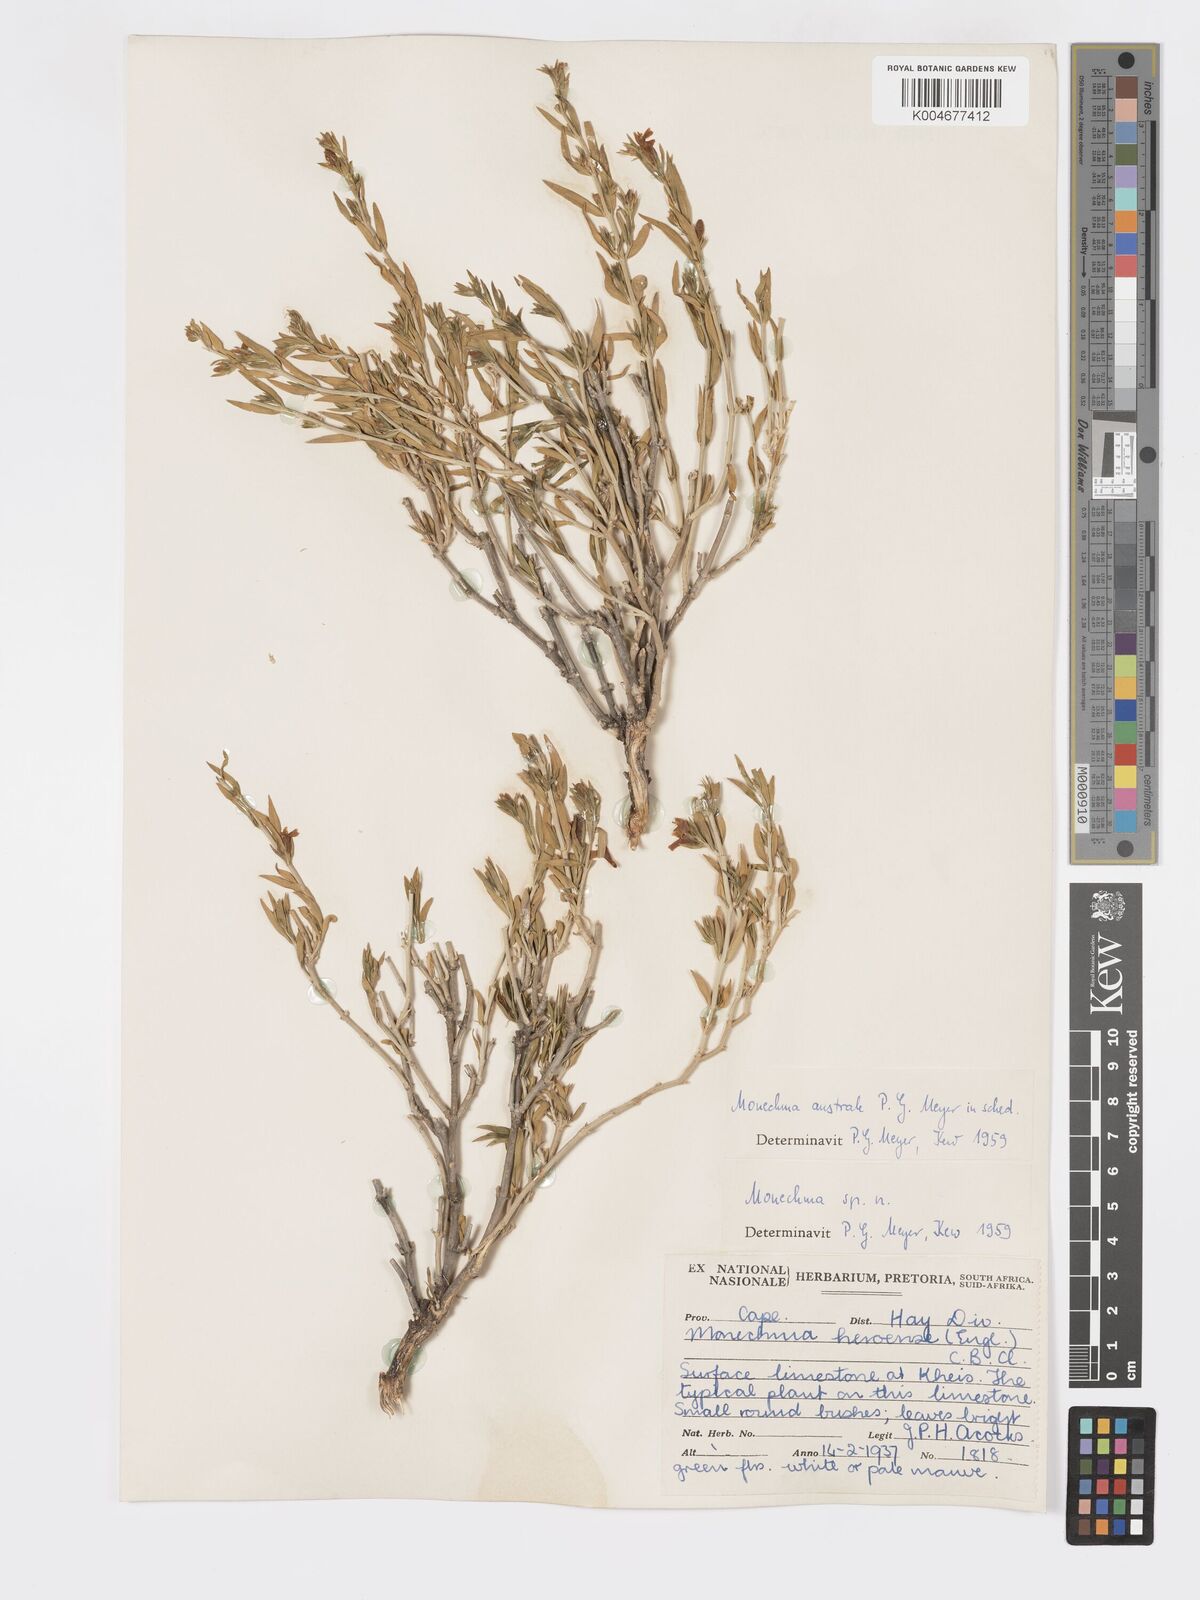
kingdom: Plantae
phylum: Tracheophyta
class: Magnoliopsida
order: Lamiales
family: Acanthaceae
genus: Pogonospermum
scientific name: Pogonospermum
